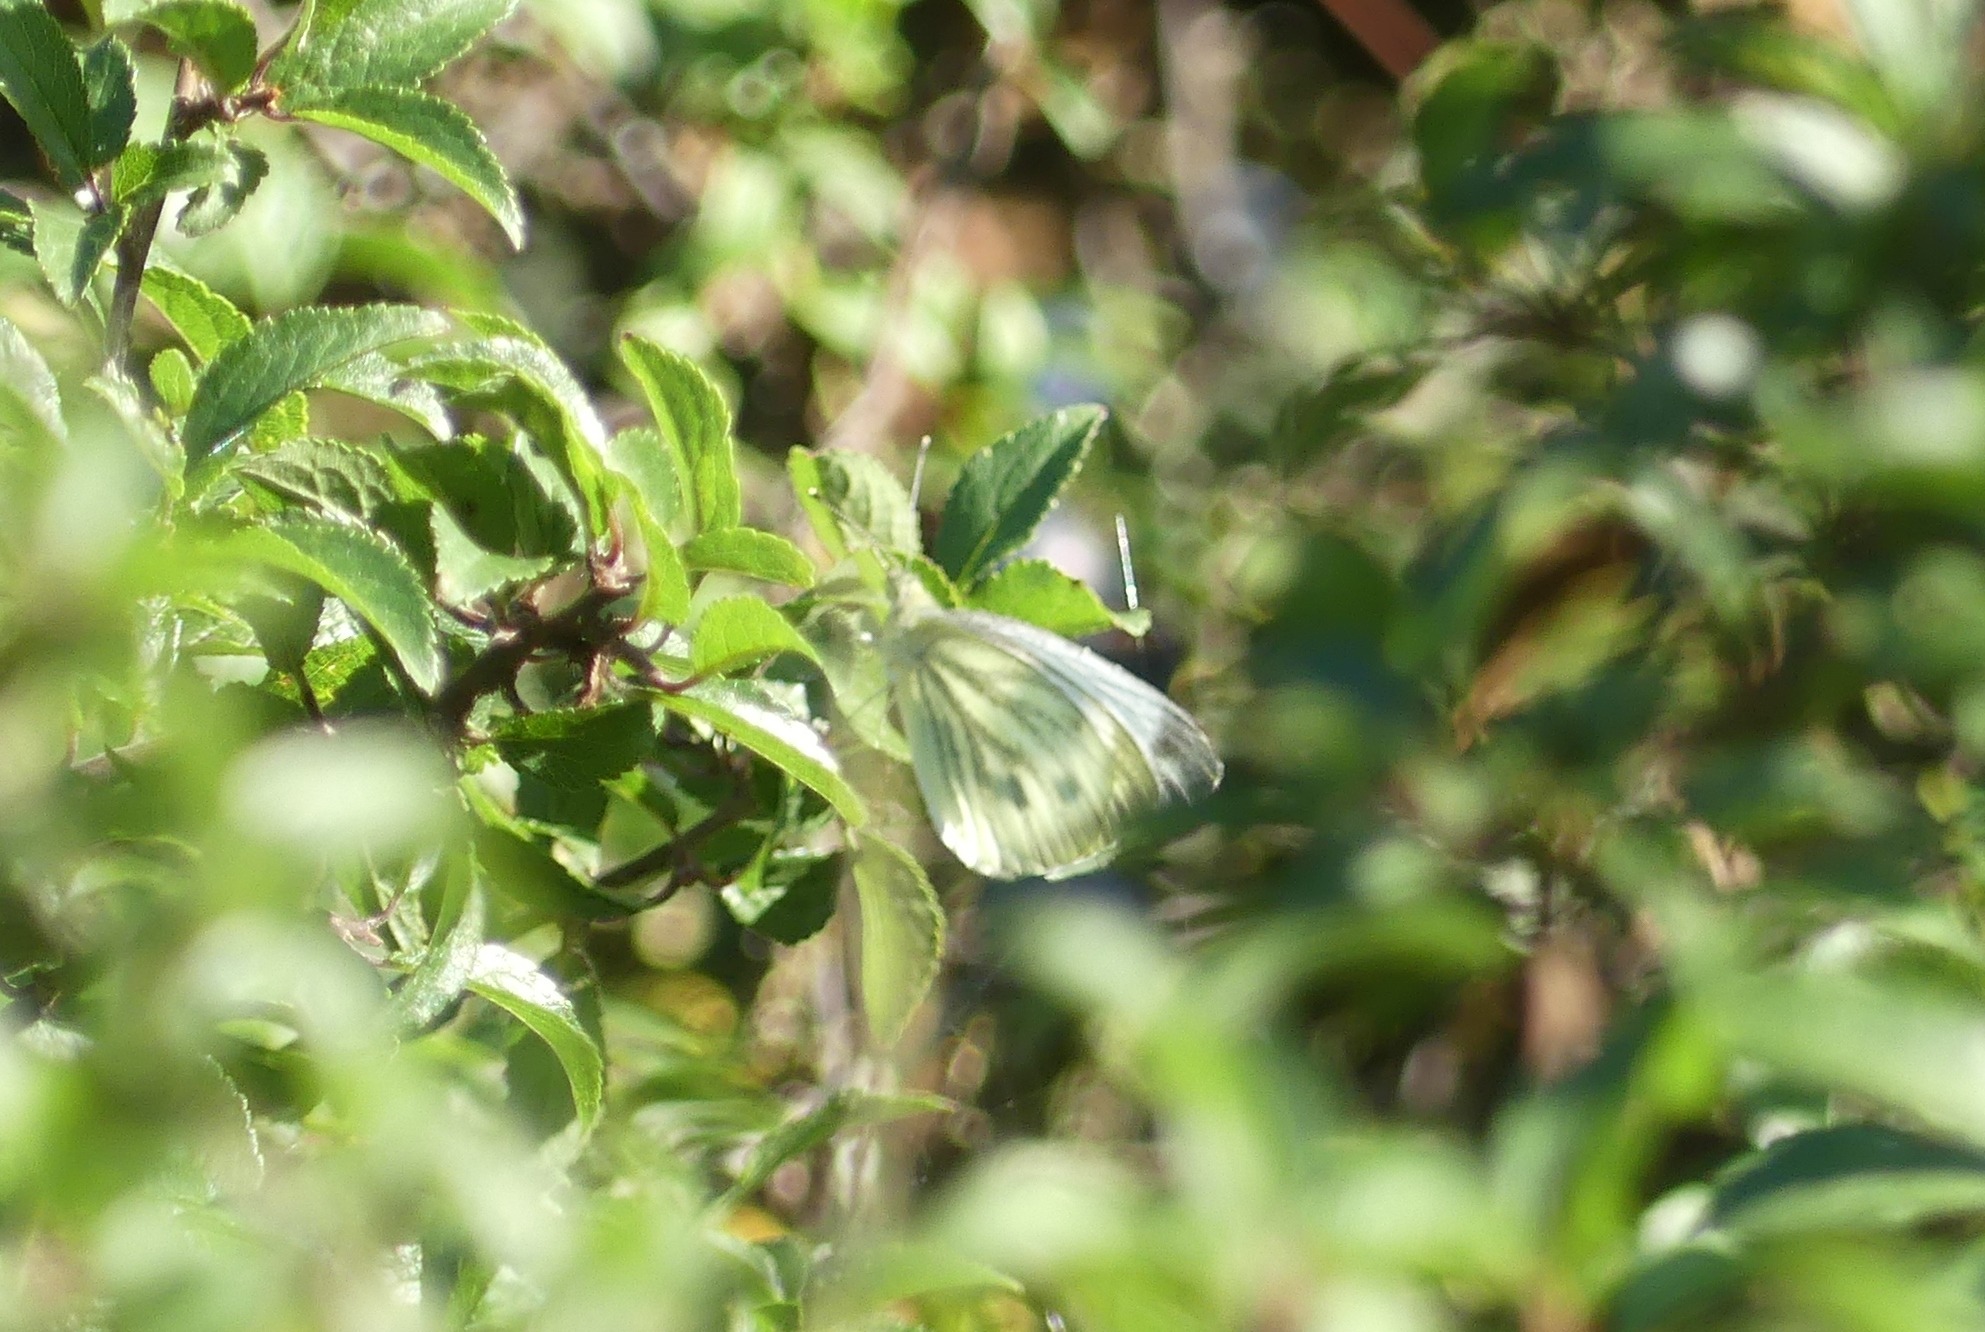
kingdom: Animalia
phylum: Arthropoda
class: Insecta
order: Lepidoptera
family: Pieridae
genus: Pieris
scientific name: Pieris napi
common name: Grønåret kålsommerfugl
